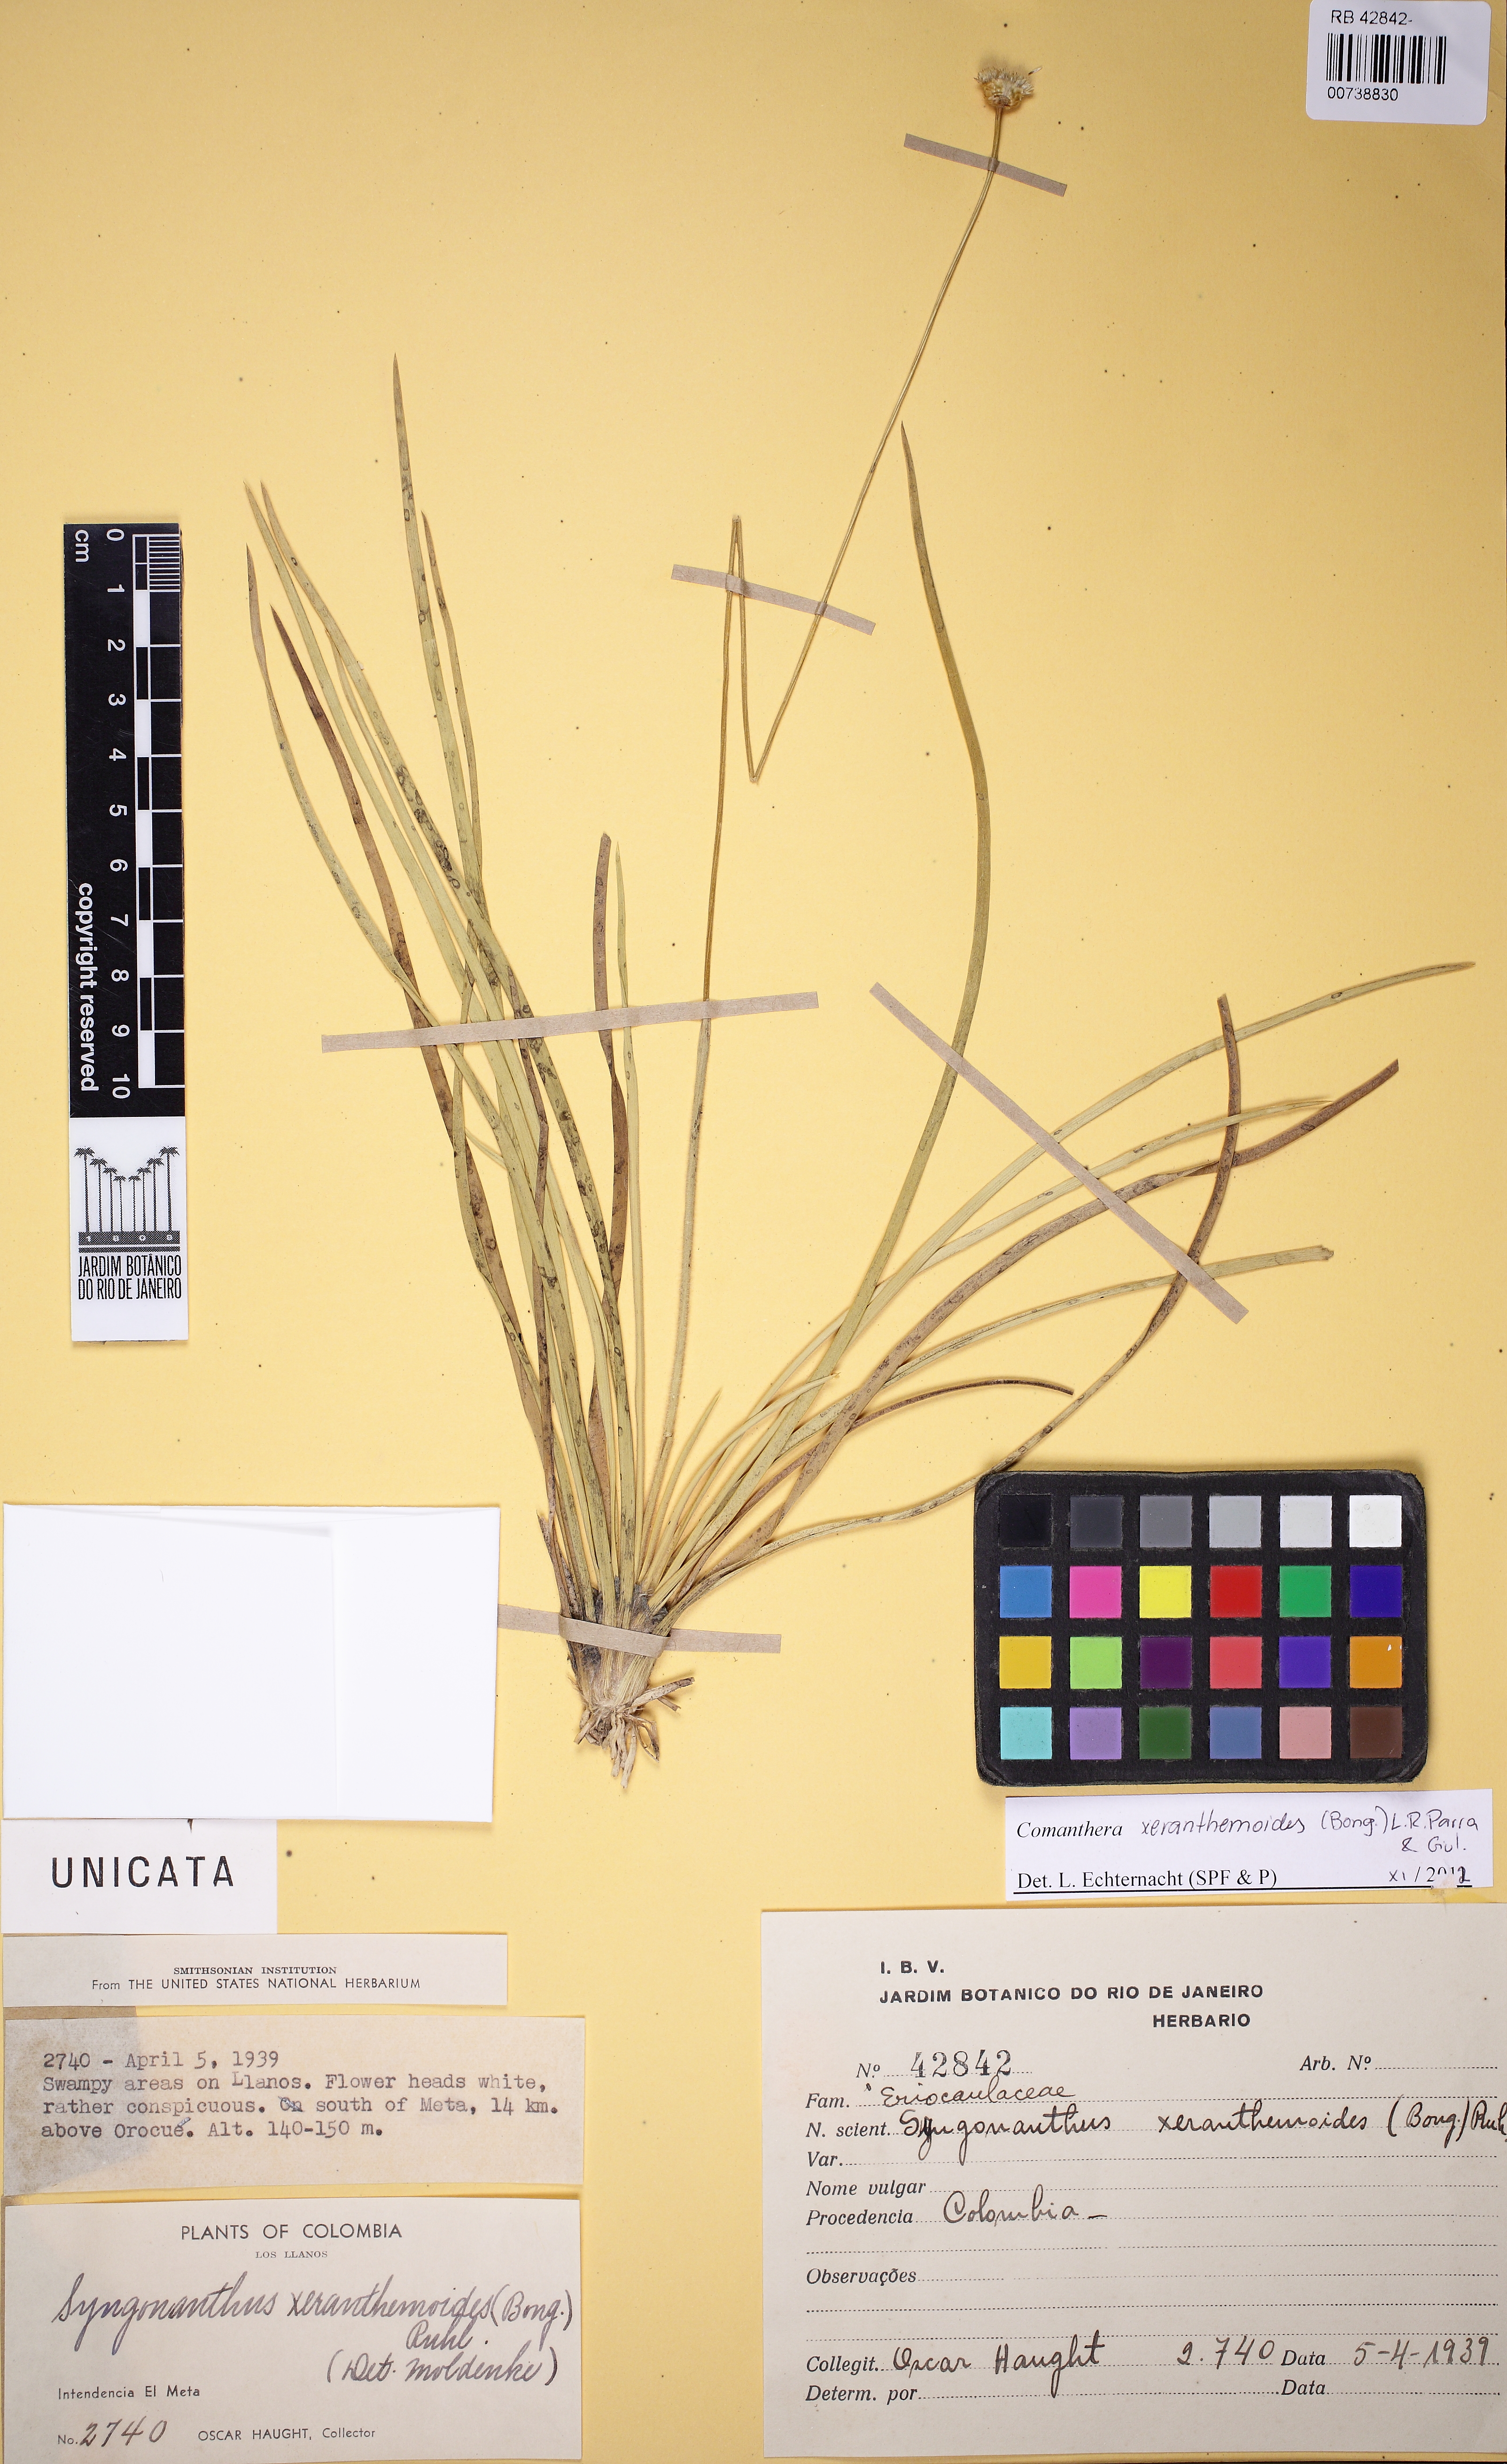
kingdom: Plantae
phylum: Tracheophyta
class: Liliopsida
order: Poales
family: Eriocaulaceae
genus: Comanthera
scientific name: Comanthera xeranthemoides
